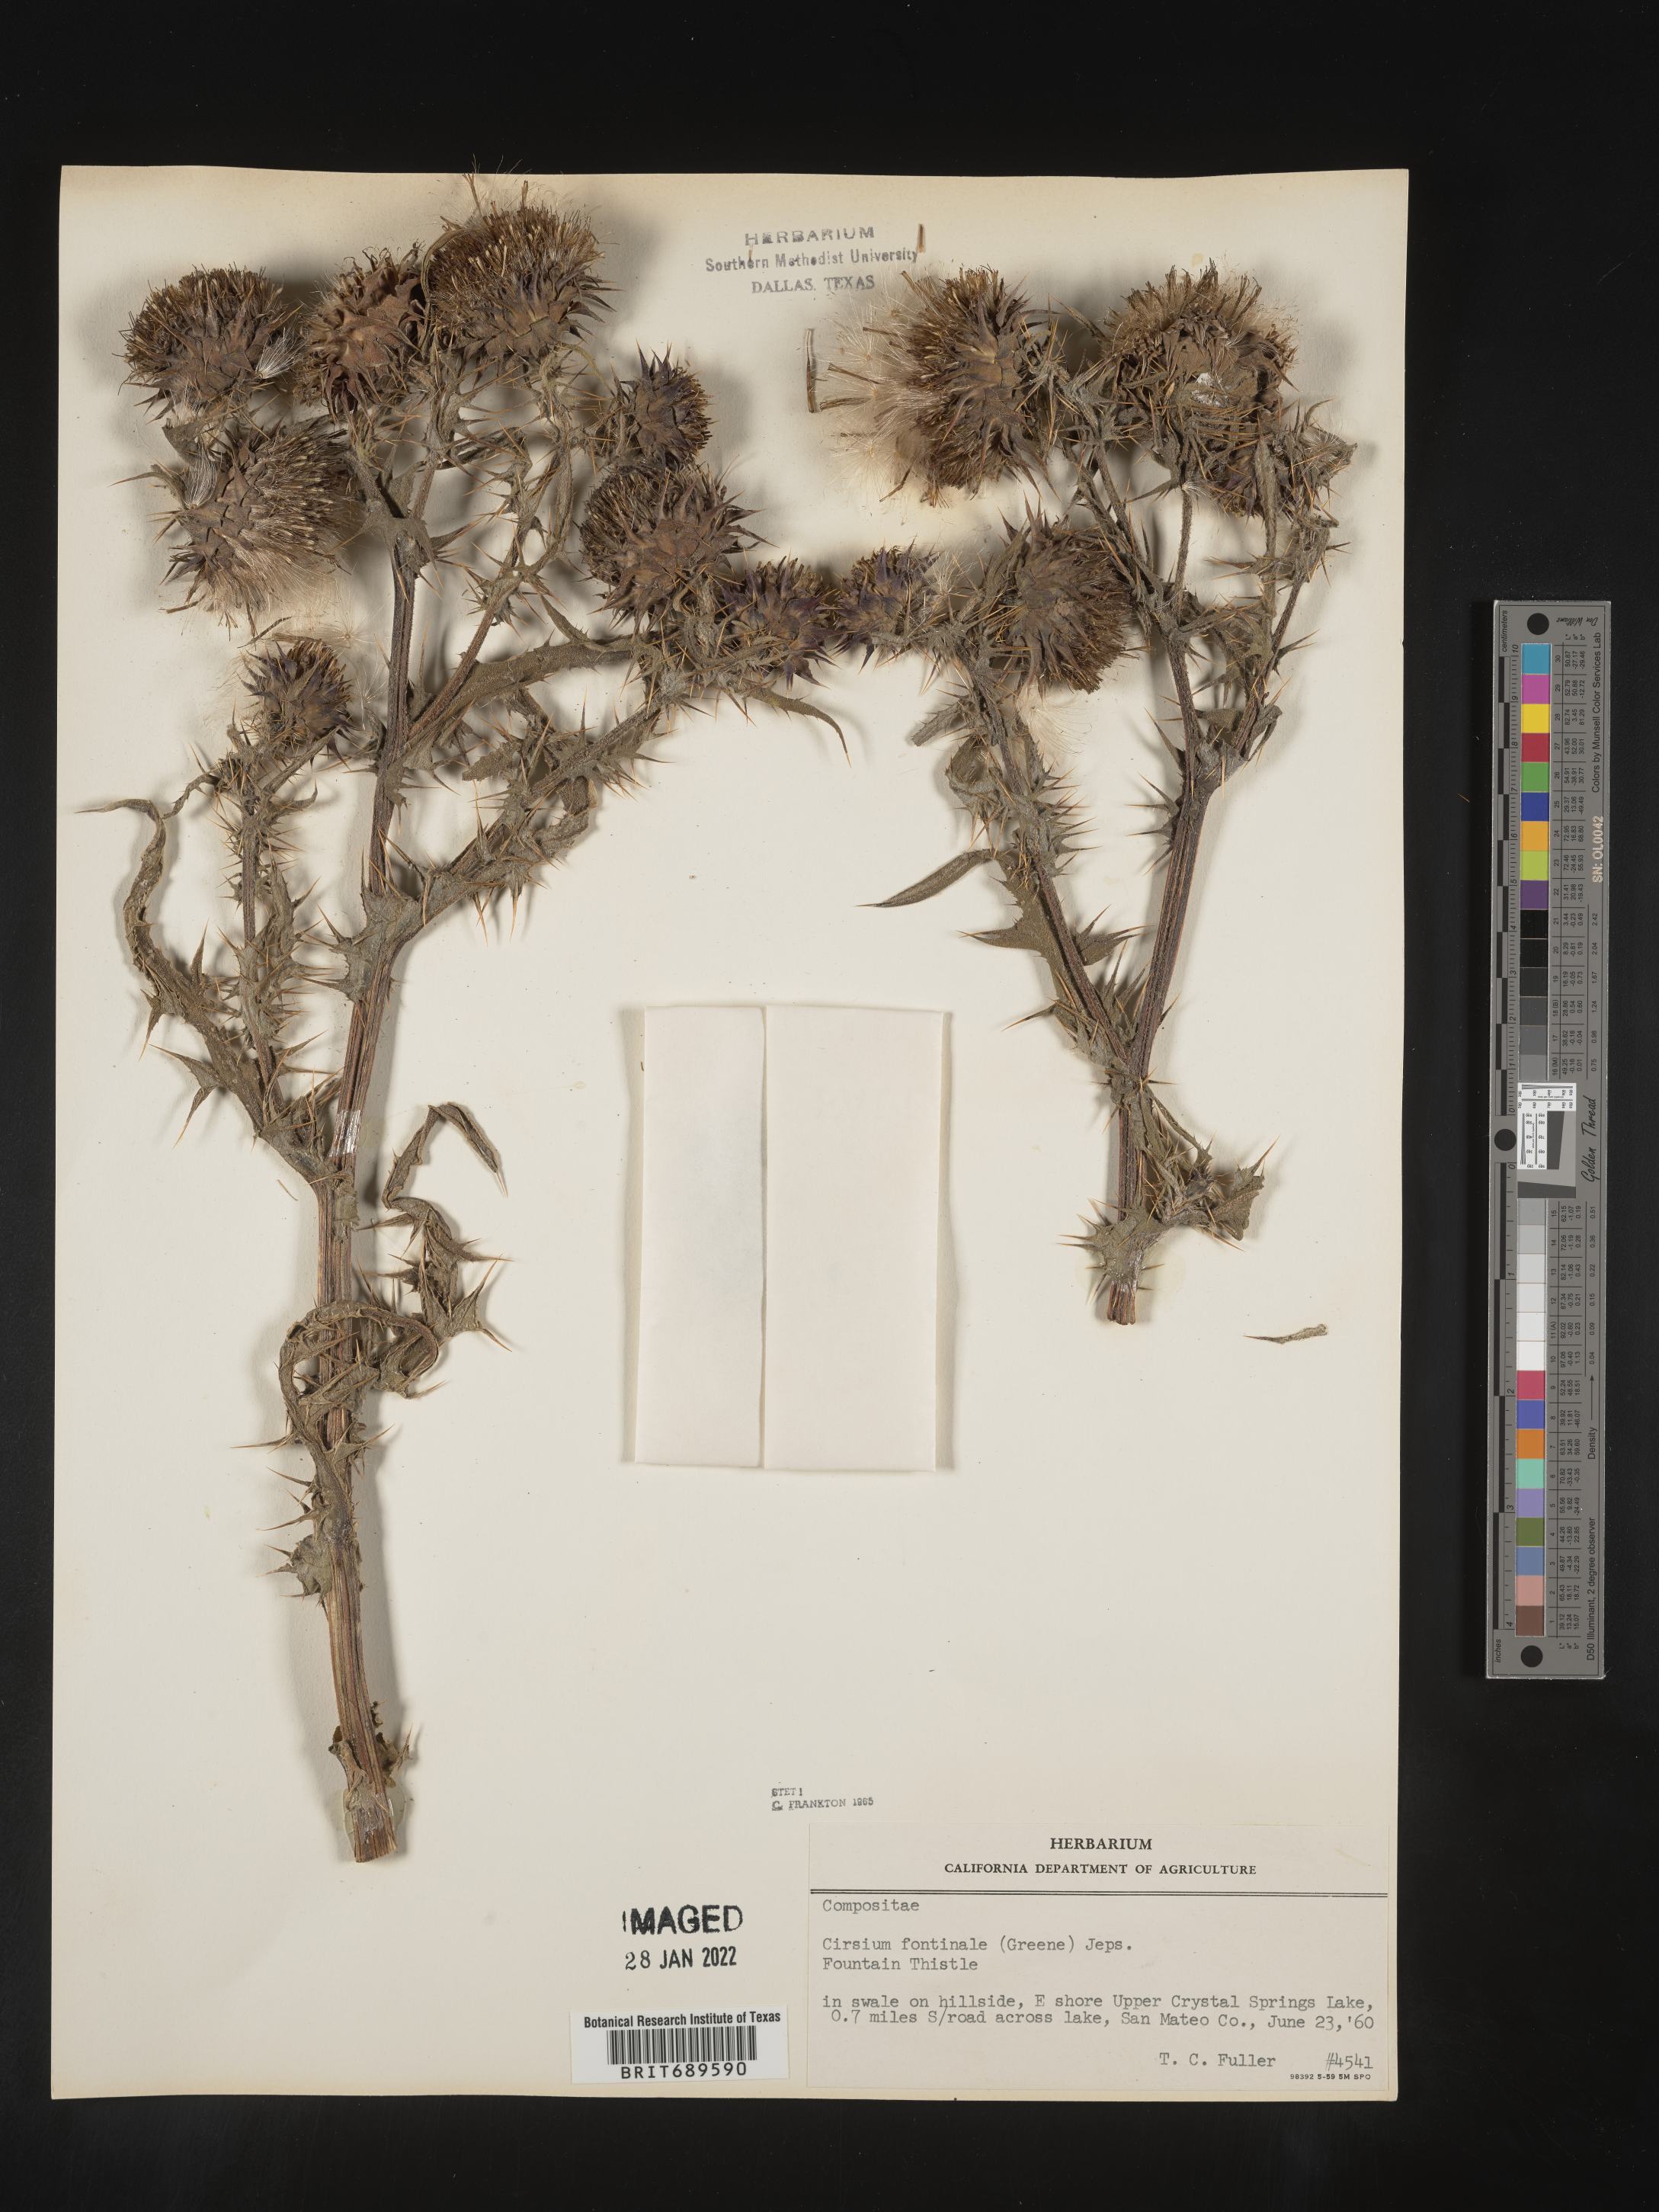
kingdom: Plantae
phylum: Tracheophyta
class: Magnoliopsida
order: Asterales
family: Asteraceae
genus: Cirsium
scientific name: Cirsium fontinale
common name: Fountain thistle
